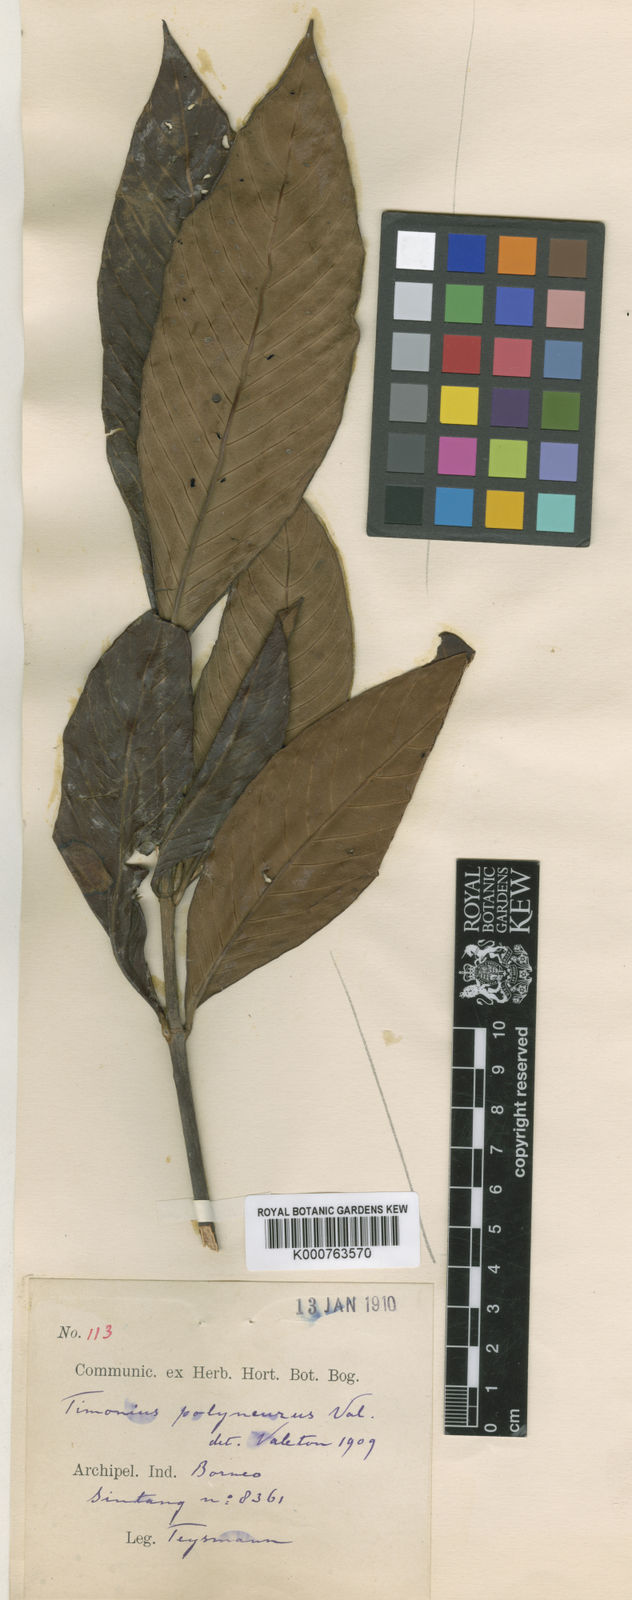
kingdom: Plantae
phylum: Tracheophyta
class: Magnoliopsida
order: Gentianales
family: Rubiaceae
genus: Timonius
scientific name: Timonius polyneurus
